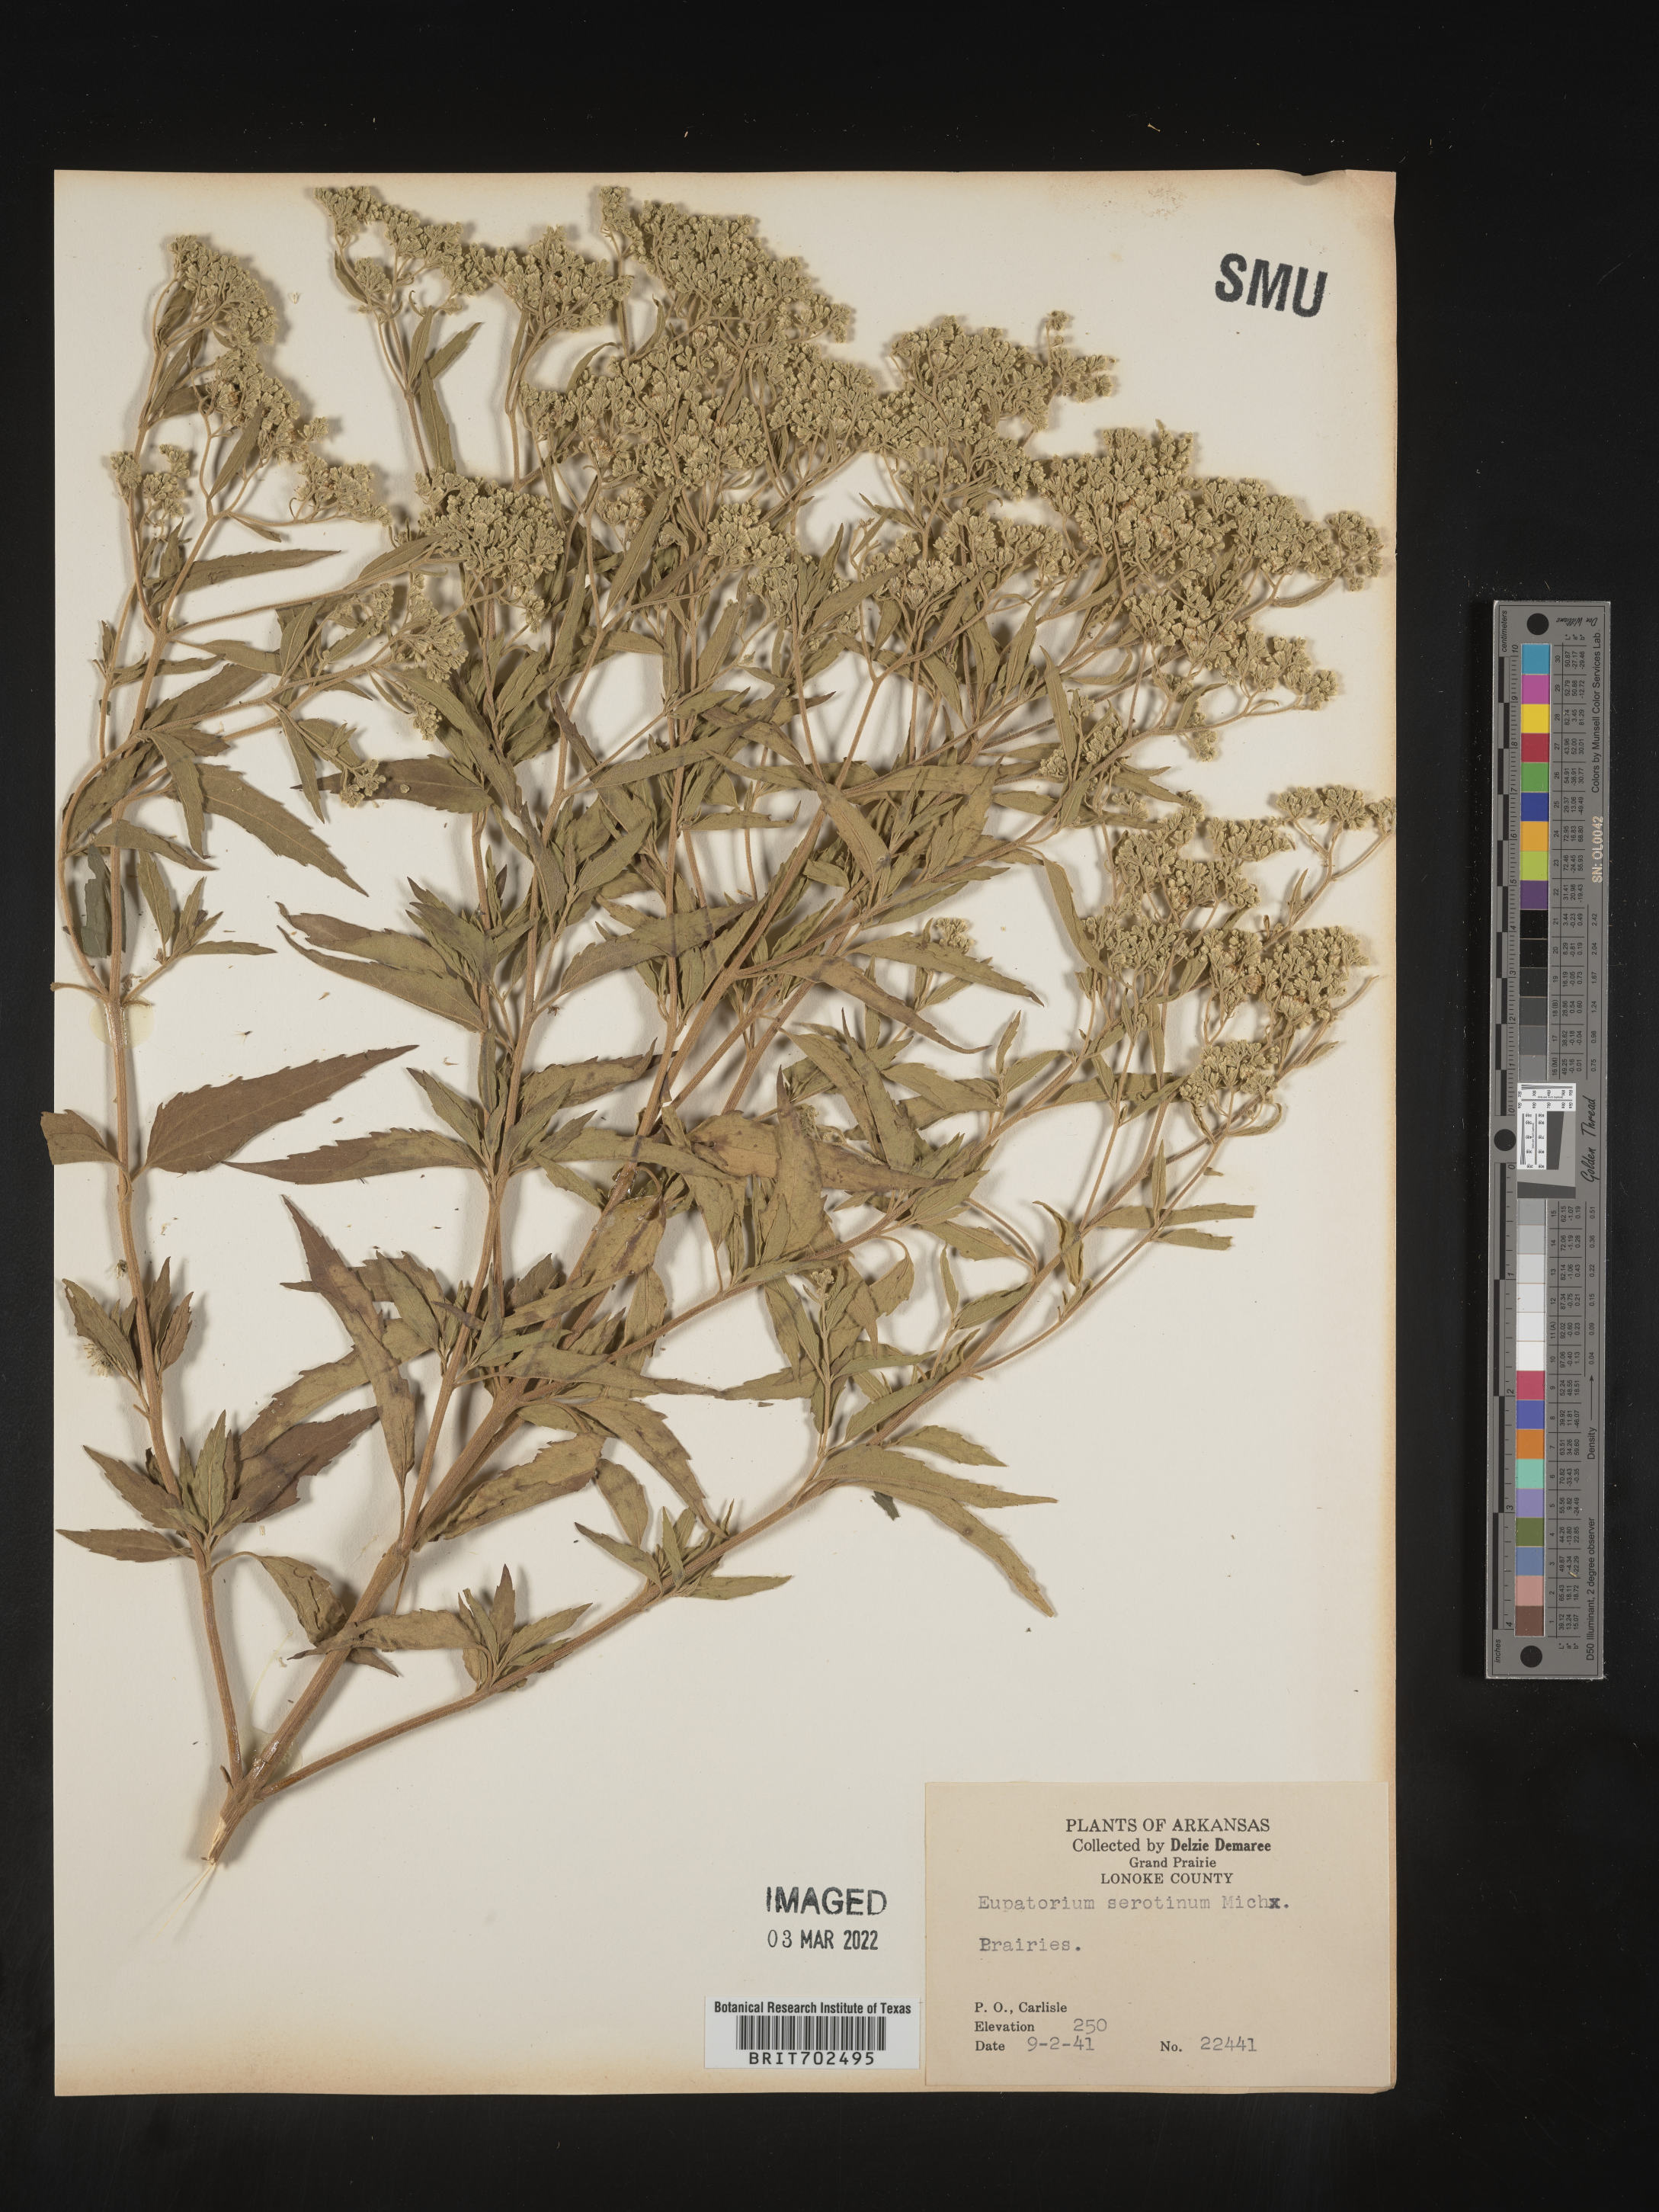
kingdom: Plantae
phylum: Tracheophyta
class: Magnoliopsida
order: Asterales
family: Asteraceae
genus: Eupatorium
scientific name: Eupatorium serotinum
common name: Late boneset
